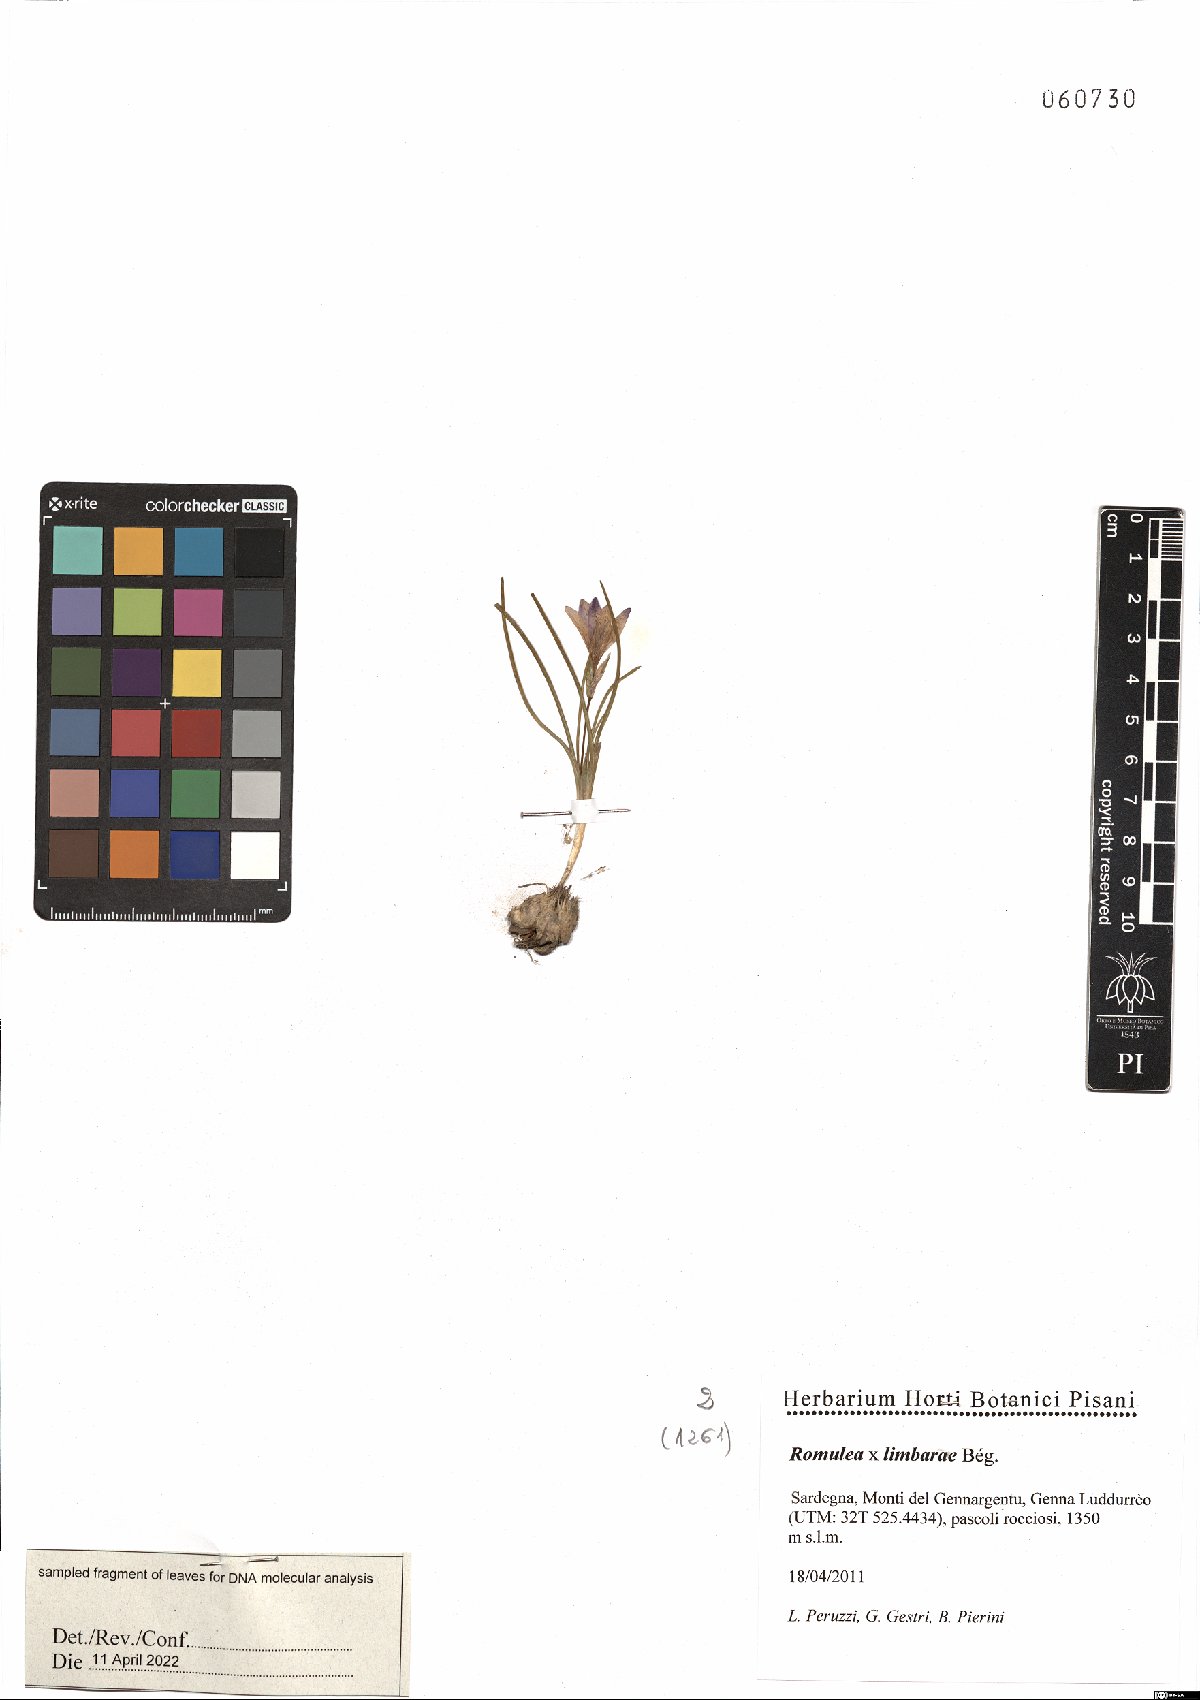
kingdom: Plantae
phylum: Tracheophyta
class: Liliopsida
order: Asparagales
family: Iridaceae
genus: Romulea
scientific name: Romulea limbarae
